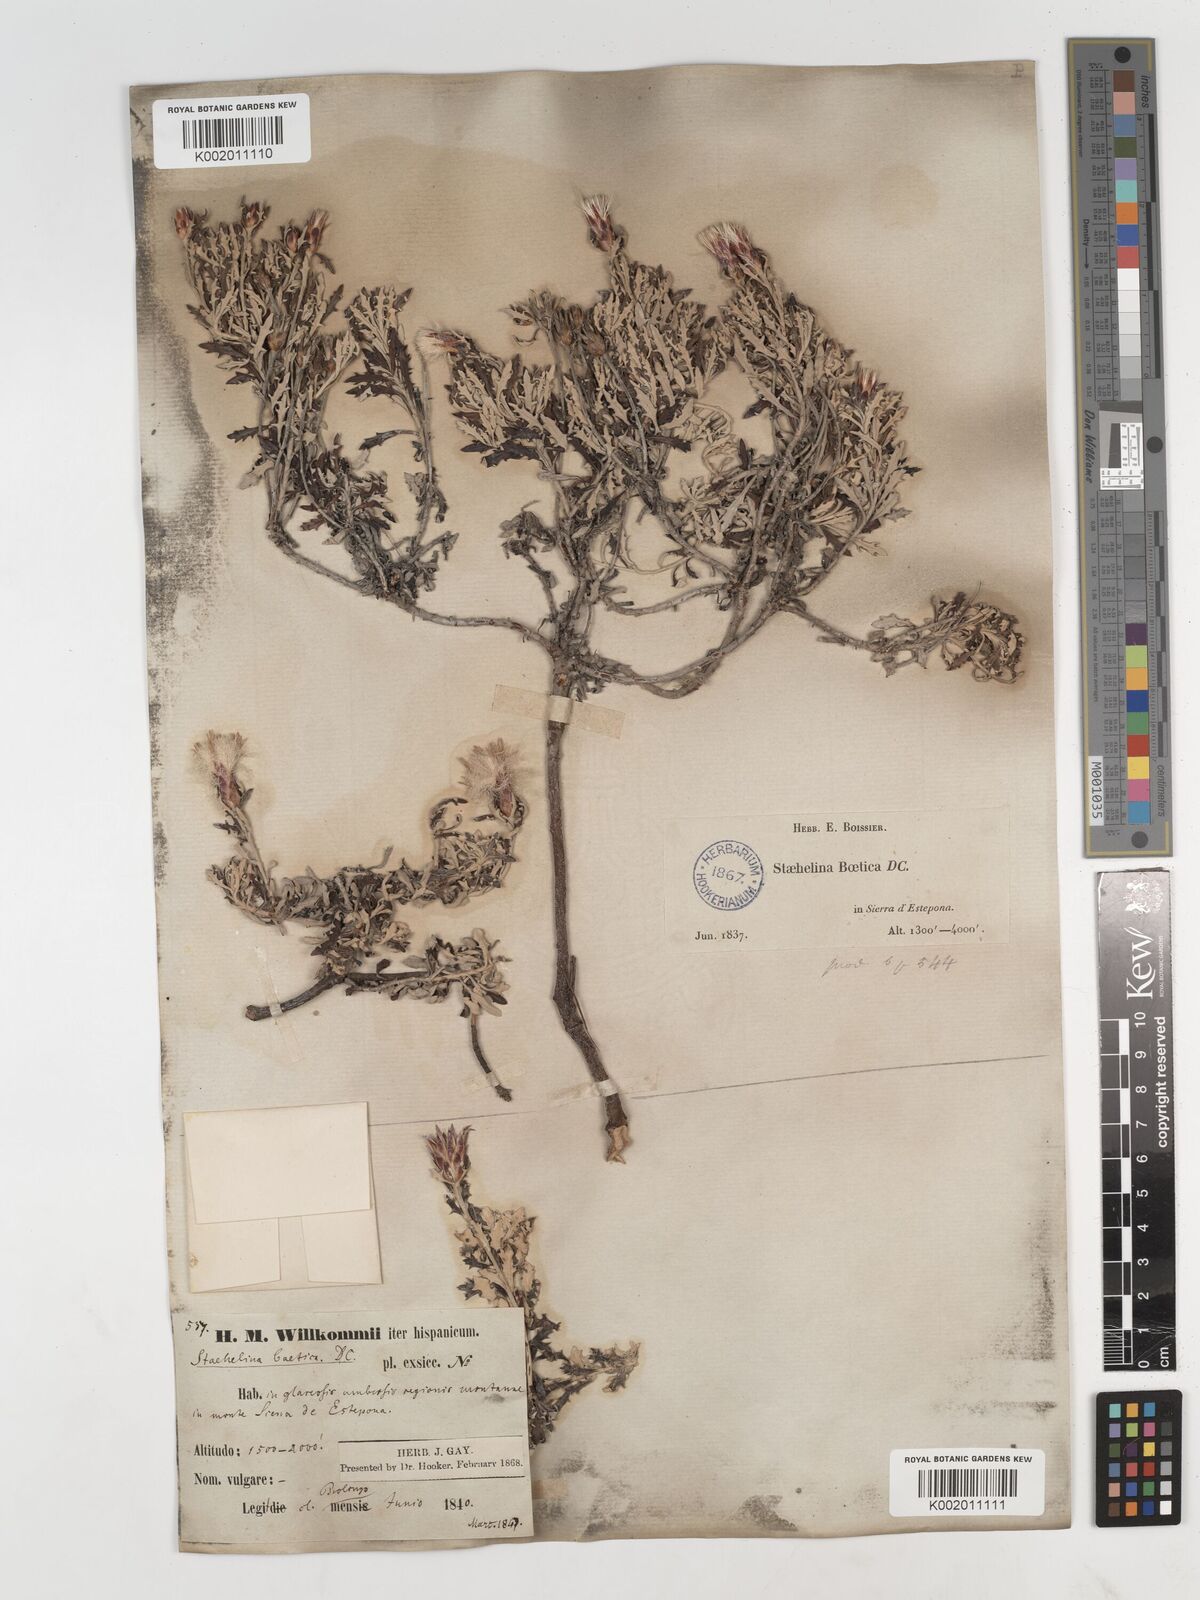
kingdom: Plantae
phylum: Tracheophyta
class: Magnoliopsida
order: Asterales
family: Asteraceae
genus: Staehelina
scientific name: Staehelina baetica
